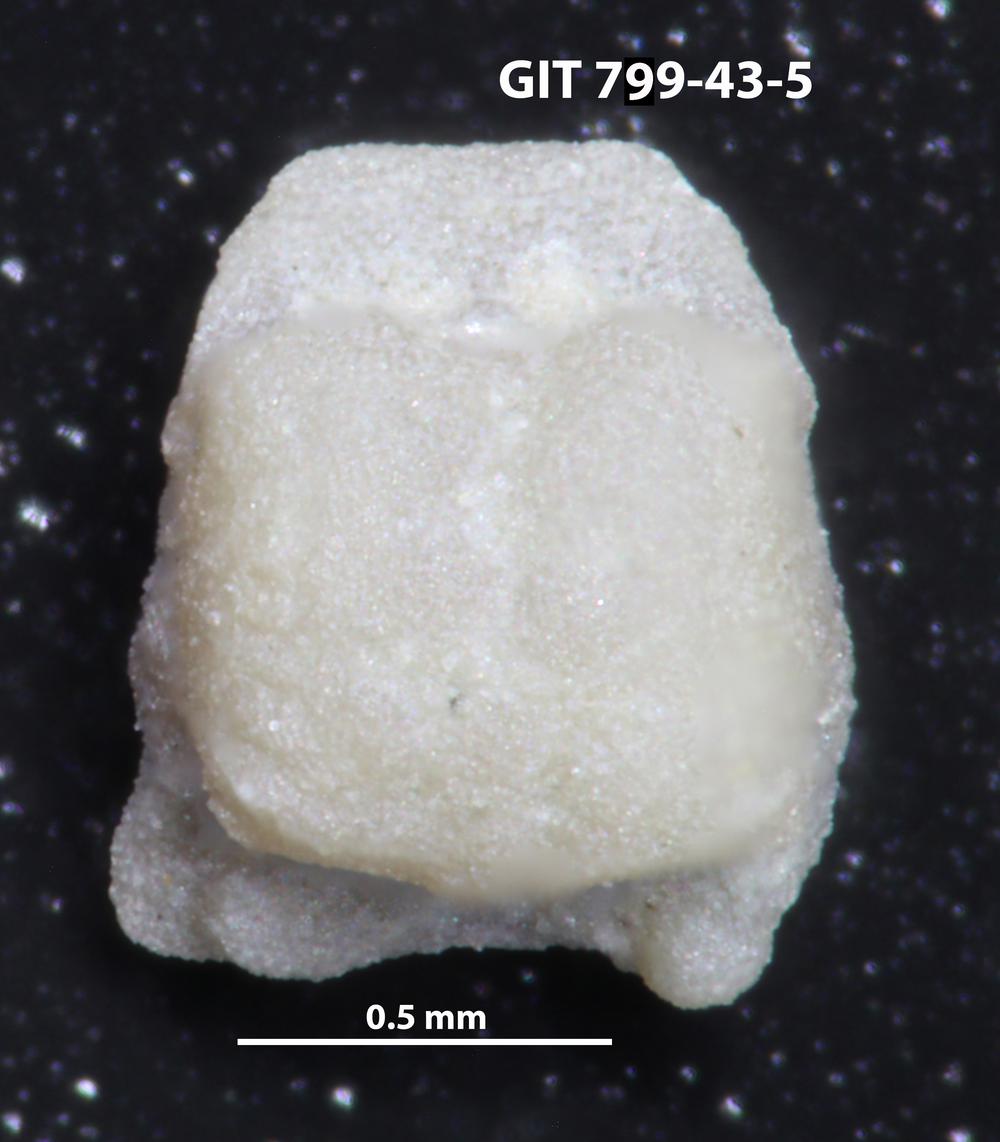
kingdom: Animalia
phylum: Echinodermata
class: Crinoidea
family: Cyclocystoididae
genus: Polytryphocycloides
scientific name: Polytryphocycloides
